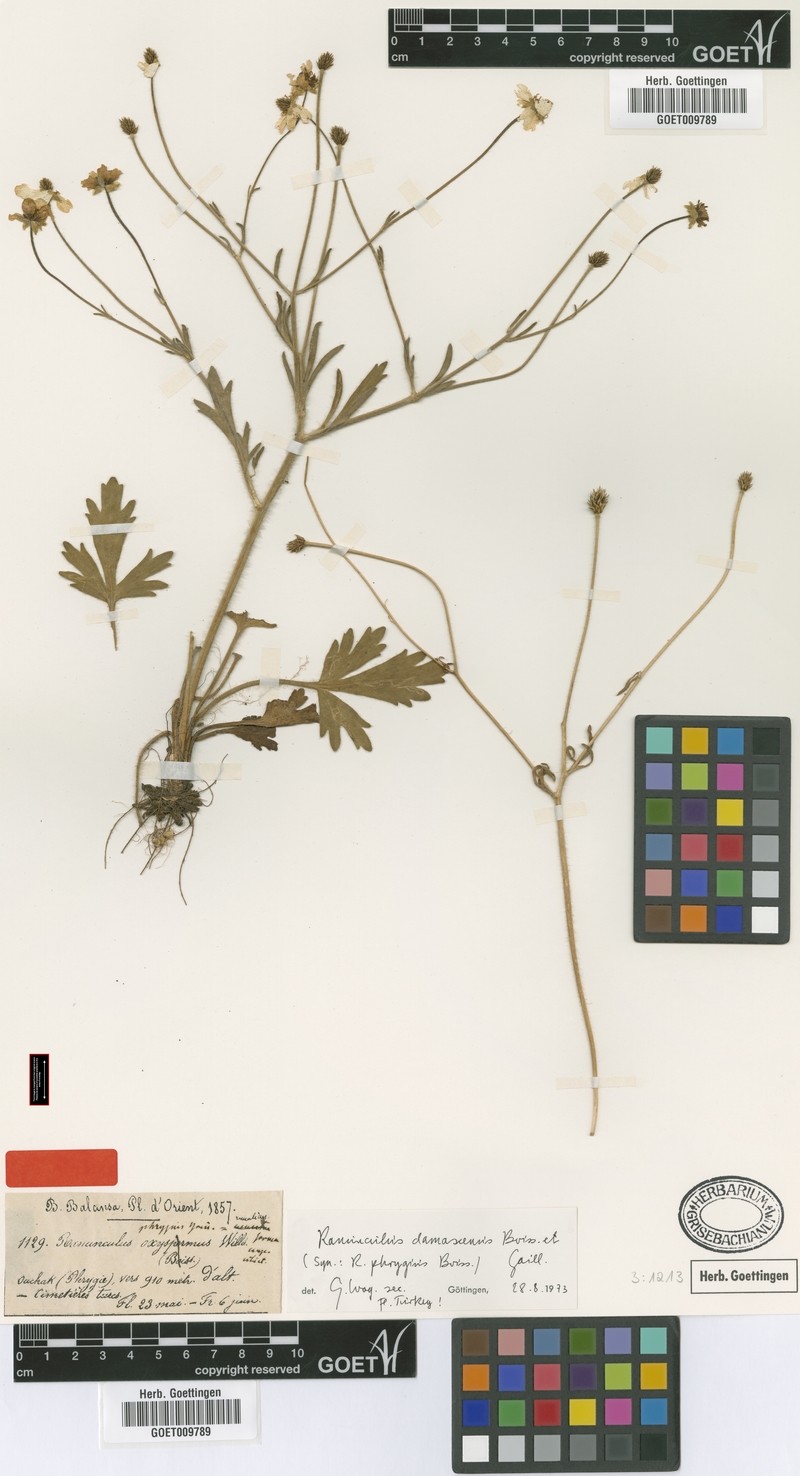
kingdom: Plantae
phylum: Tracheophyta
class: Magnoliopsida
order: Ranunculales
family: Ranunculaceae
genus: Ranunculus
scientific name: Ranunculus damascenus
